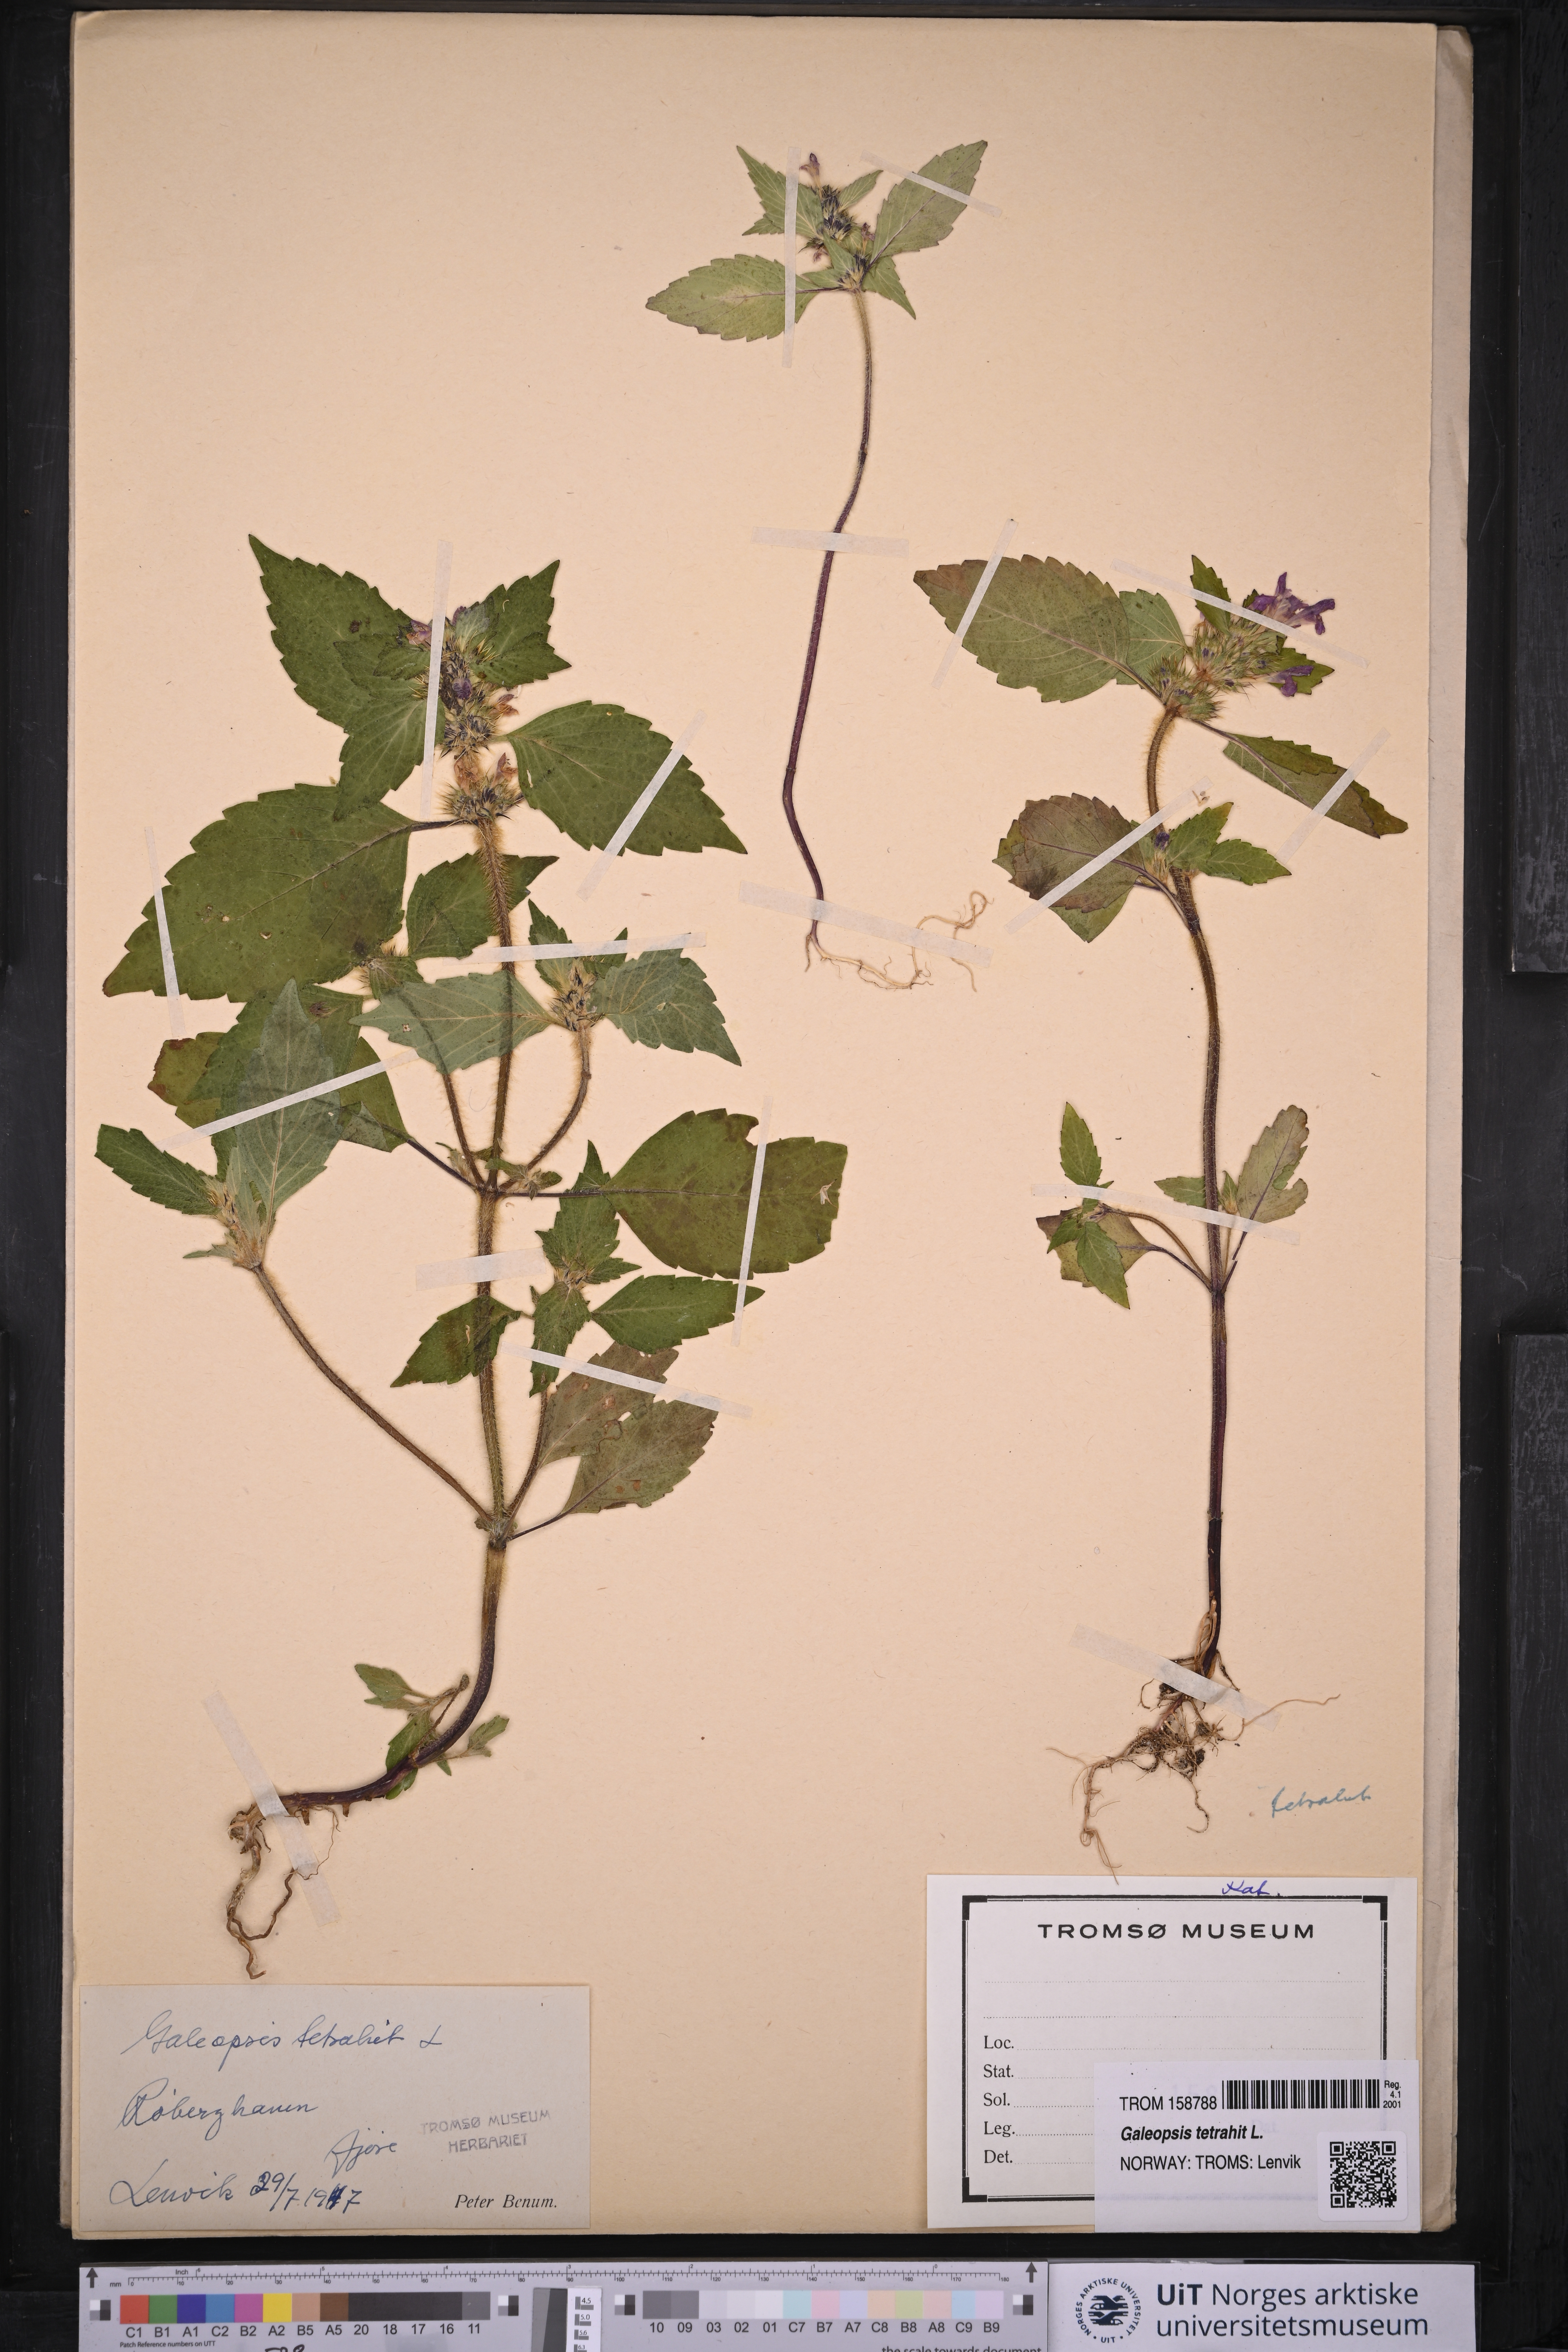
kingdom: Plantae
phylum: Tracheophyta
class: Magnoliopsida
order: Lamiales
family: Lamiaceae
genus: Galeopsis
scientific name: Galeopsis tetrahit
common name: Common hemp-nettle
